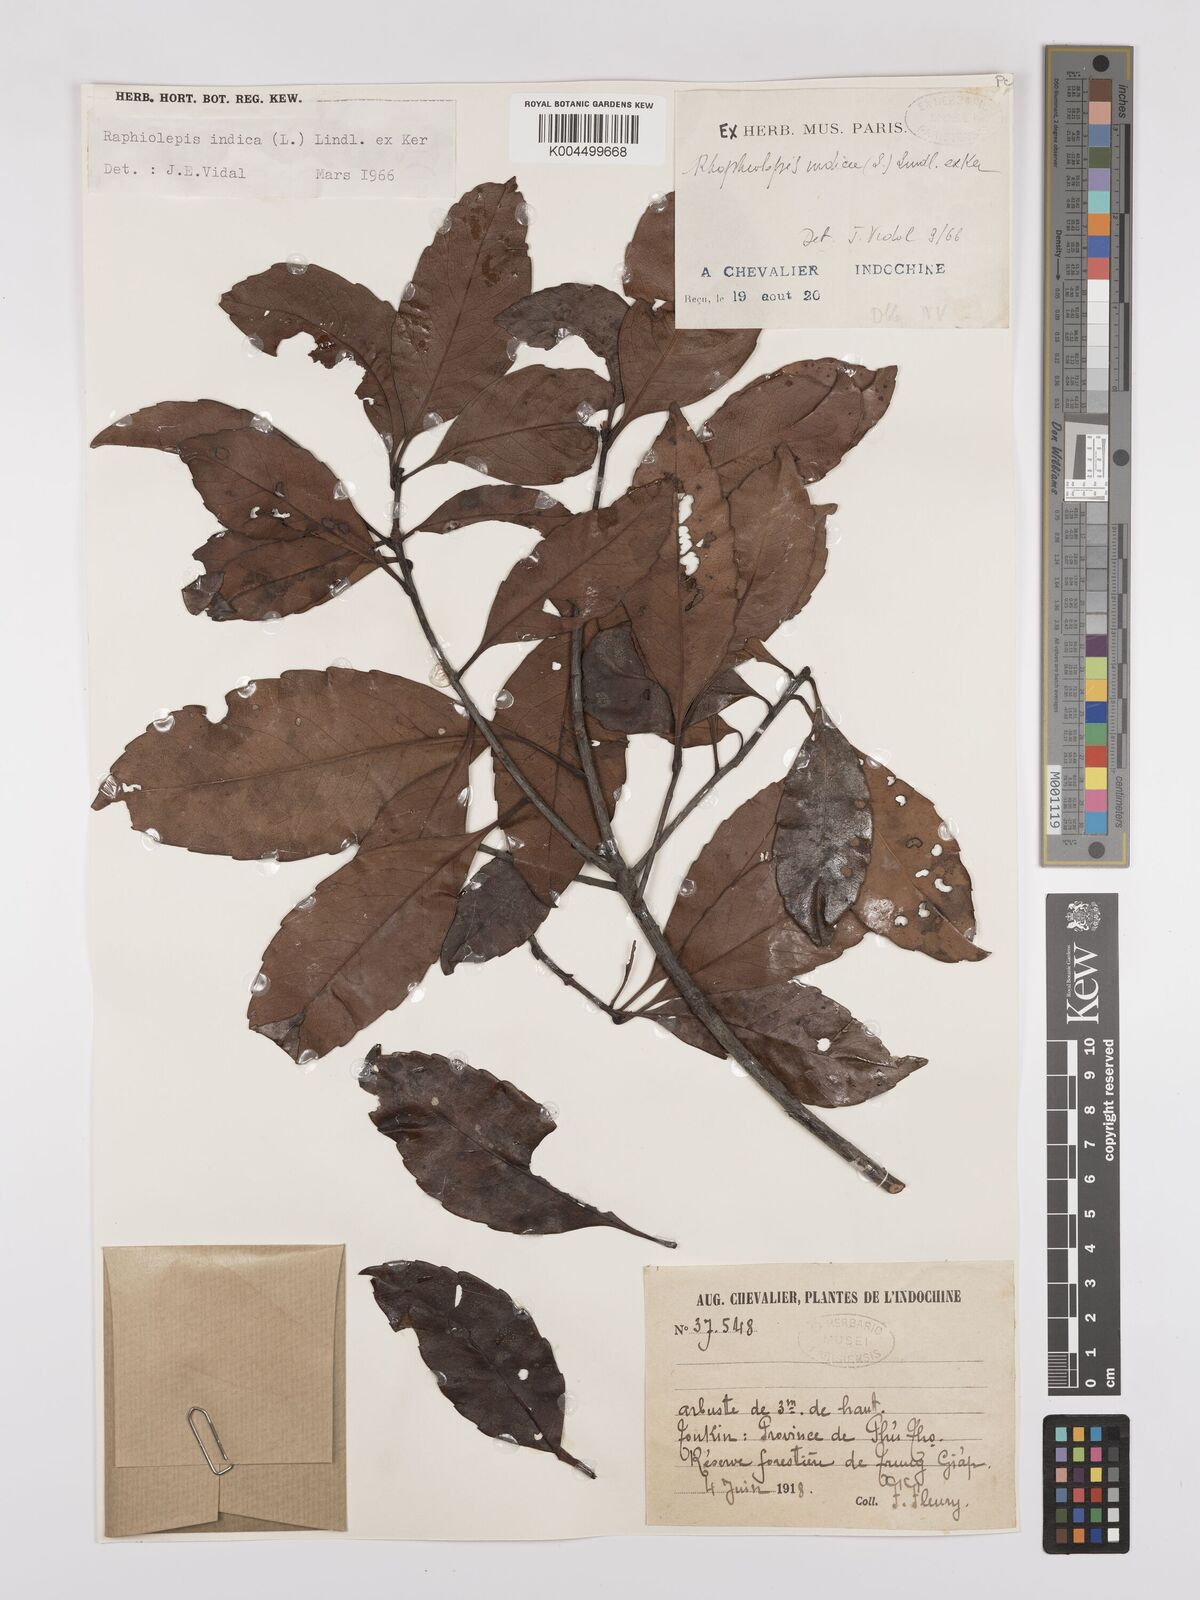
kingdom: Plantae
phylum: Tracheophyta
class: Magnoliopsida
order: Rosales
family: Rosaceae
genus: Rhaphiolepis
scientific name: Rhaphiolepis indica
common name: India-hawthorn
